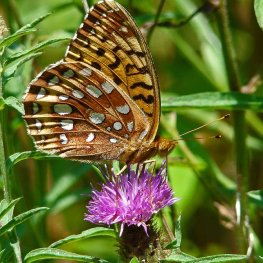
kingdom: Animalia
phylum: Arthropoda
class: Insecta
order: Lepidoptera
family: Nymphalidae
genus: Speyeria
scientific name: Speyeria cybele
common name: Great Spangled Fritillary
